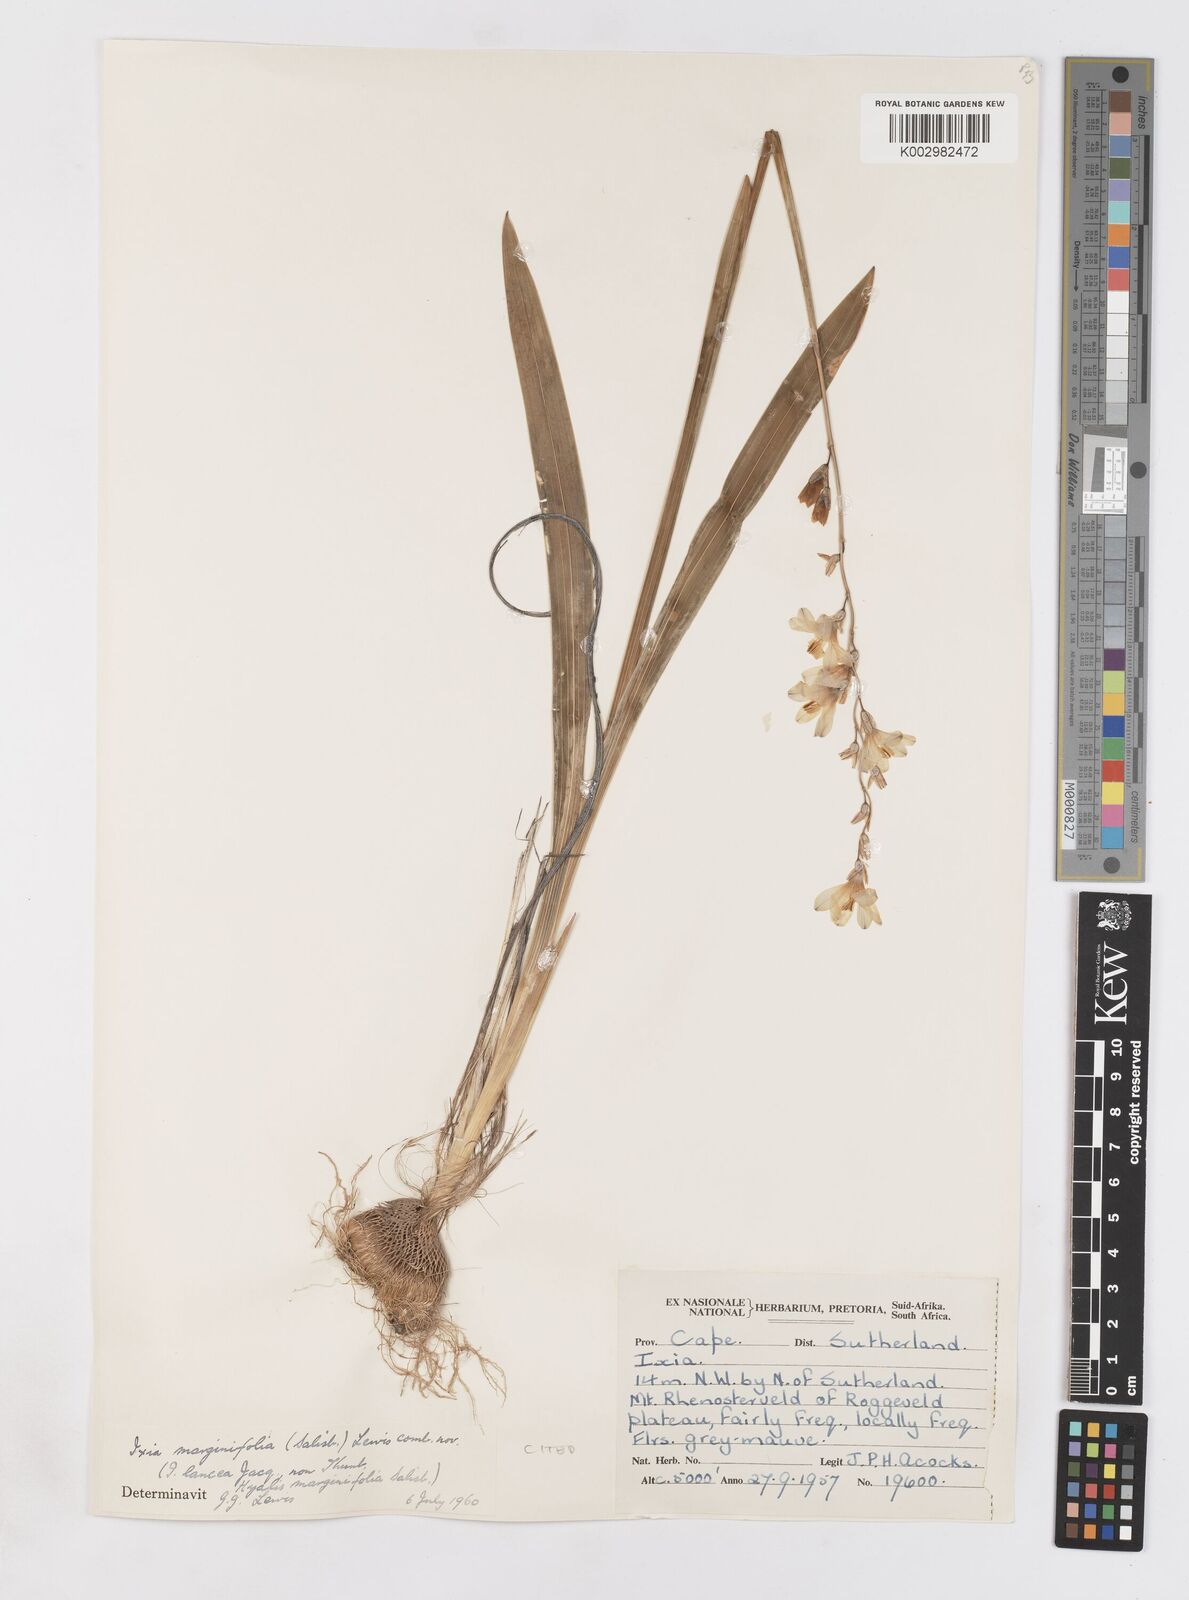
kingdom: Plantae
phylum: Tracheophyta
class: Liliopsida
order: Asparagales
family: Iridaceae
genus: Ixia
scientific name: Ixia marginifolia
